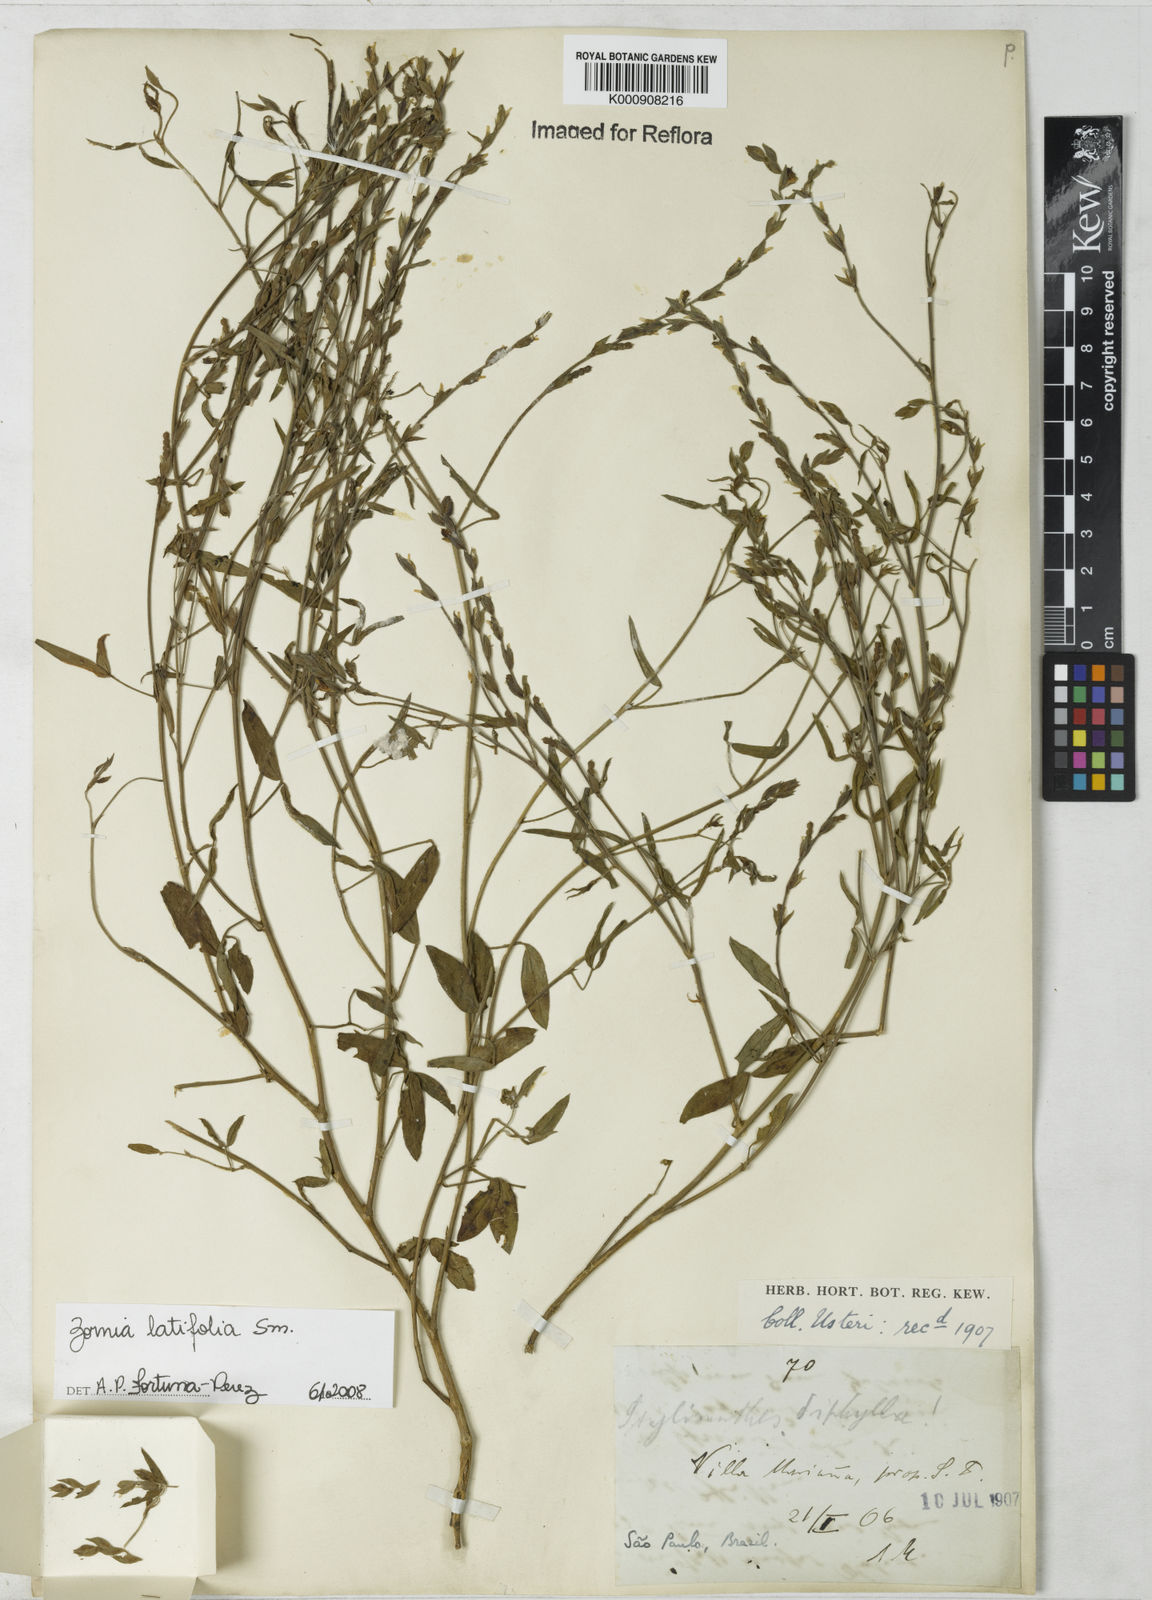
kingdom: Plantae
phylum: Tracheophyta
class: Magnoliopsida
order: Fabales
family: Fabaceae
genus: Zornia
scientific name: Zornia latifolia
